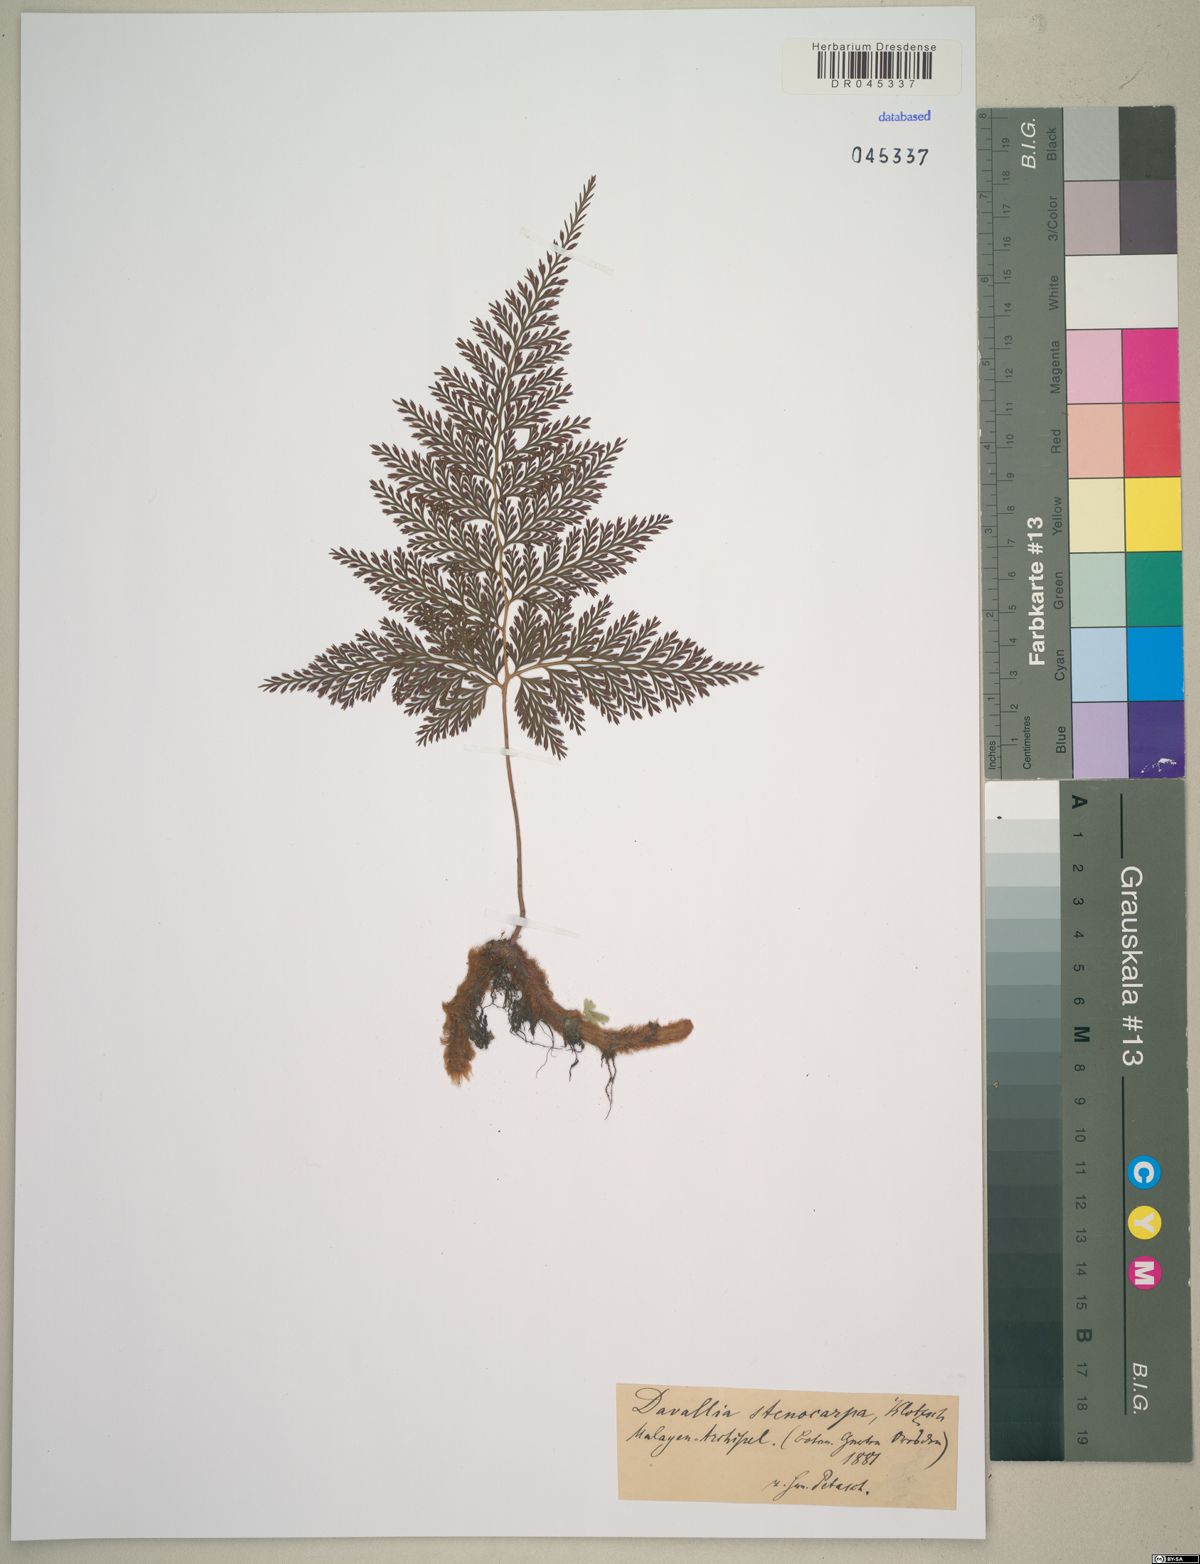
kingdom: Plantae
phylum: Tracheophyta
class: Polypodiopsida
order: Polypodiales
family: Davalliaceae
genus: Davallia
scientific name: Davallia
